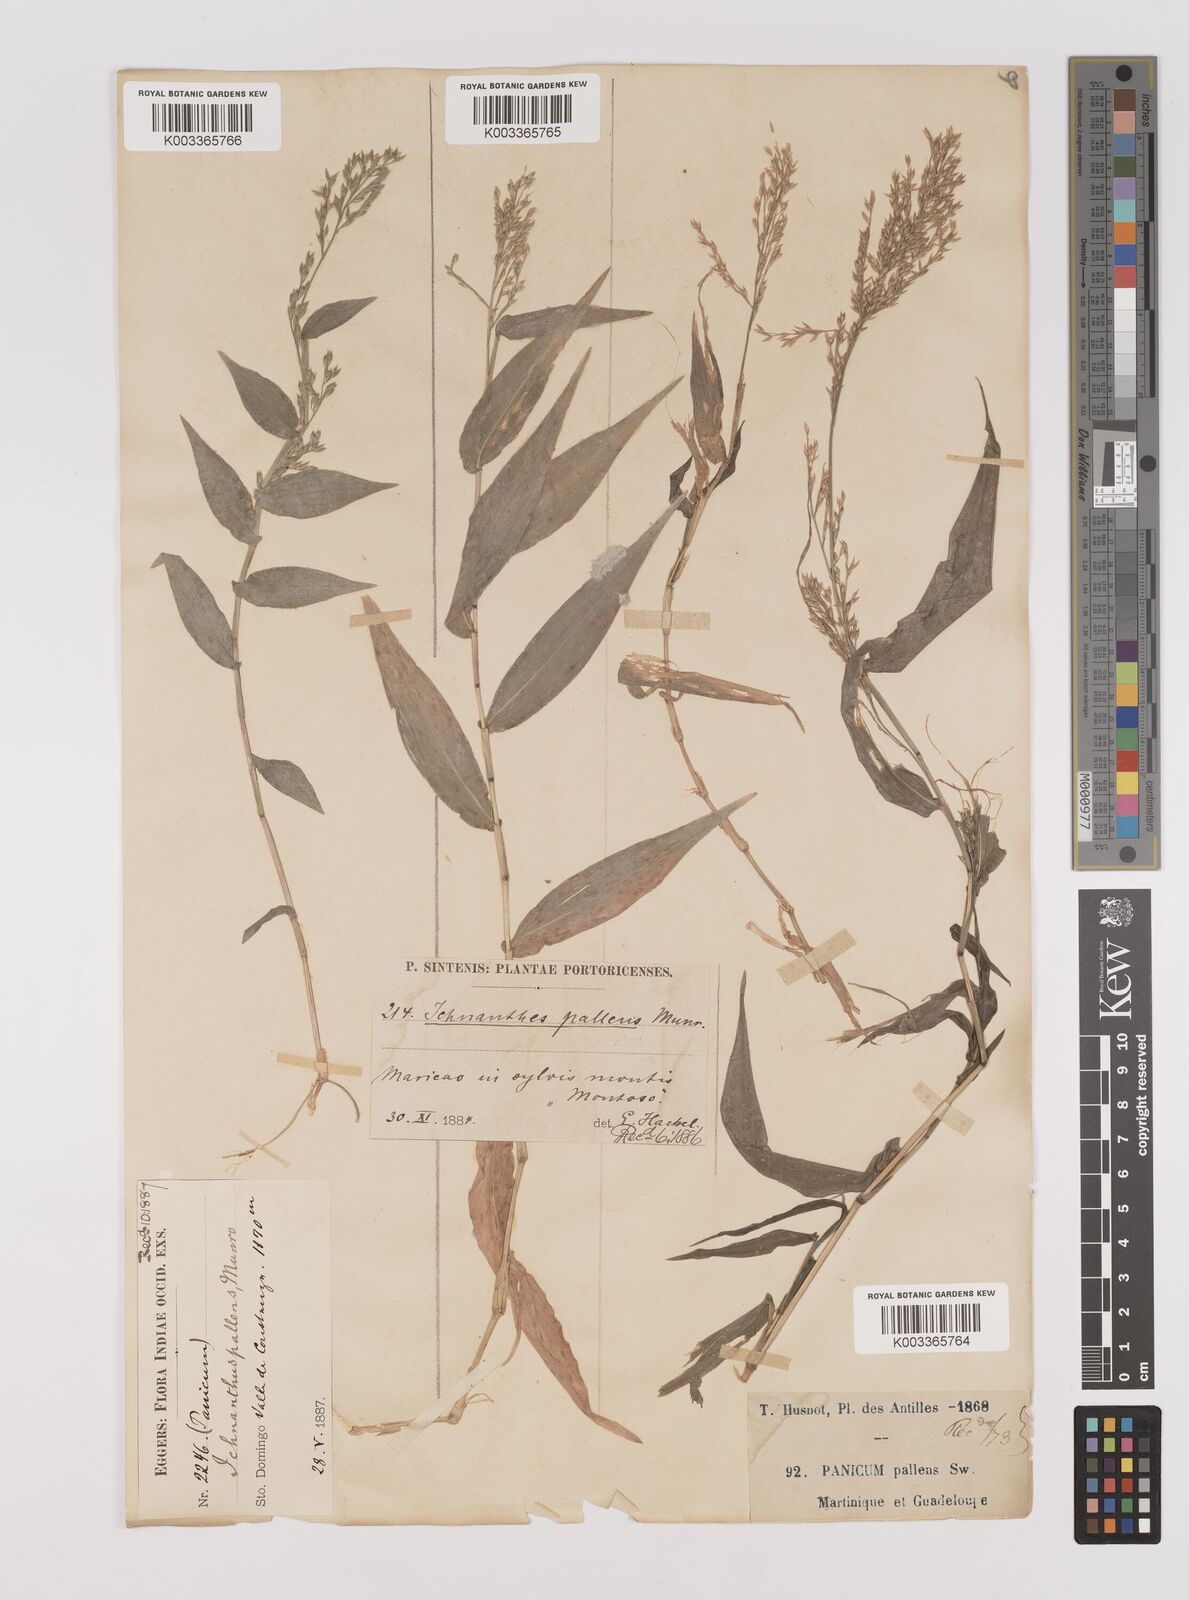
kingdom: Plantae
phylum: Tracheophyta
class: Liliopsida
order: Poales
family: Poaceae
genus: Ichnanthus
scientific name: Ichnanthus pallens
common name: Water grass
